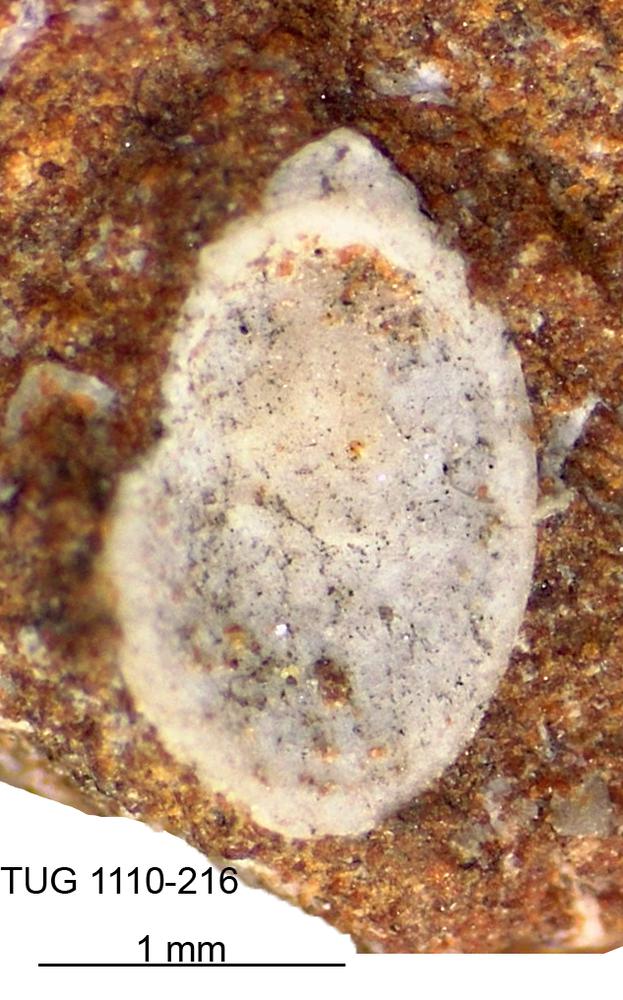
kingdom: Animalia
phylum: Brachiopoda
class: Craniata
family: Craniopsidae
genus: Pseudopholidops
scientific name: Pseudopholidops
